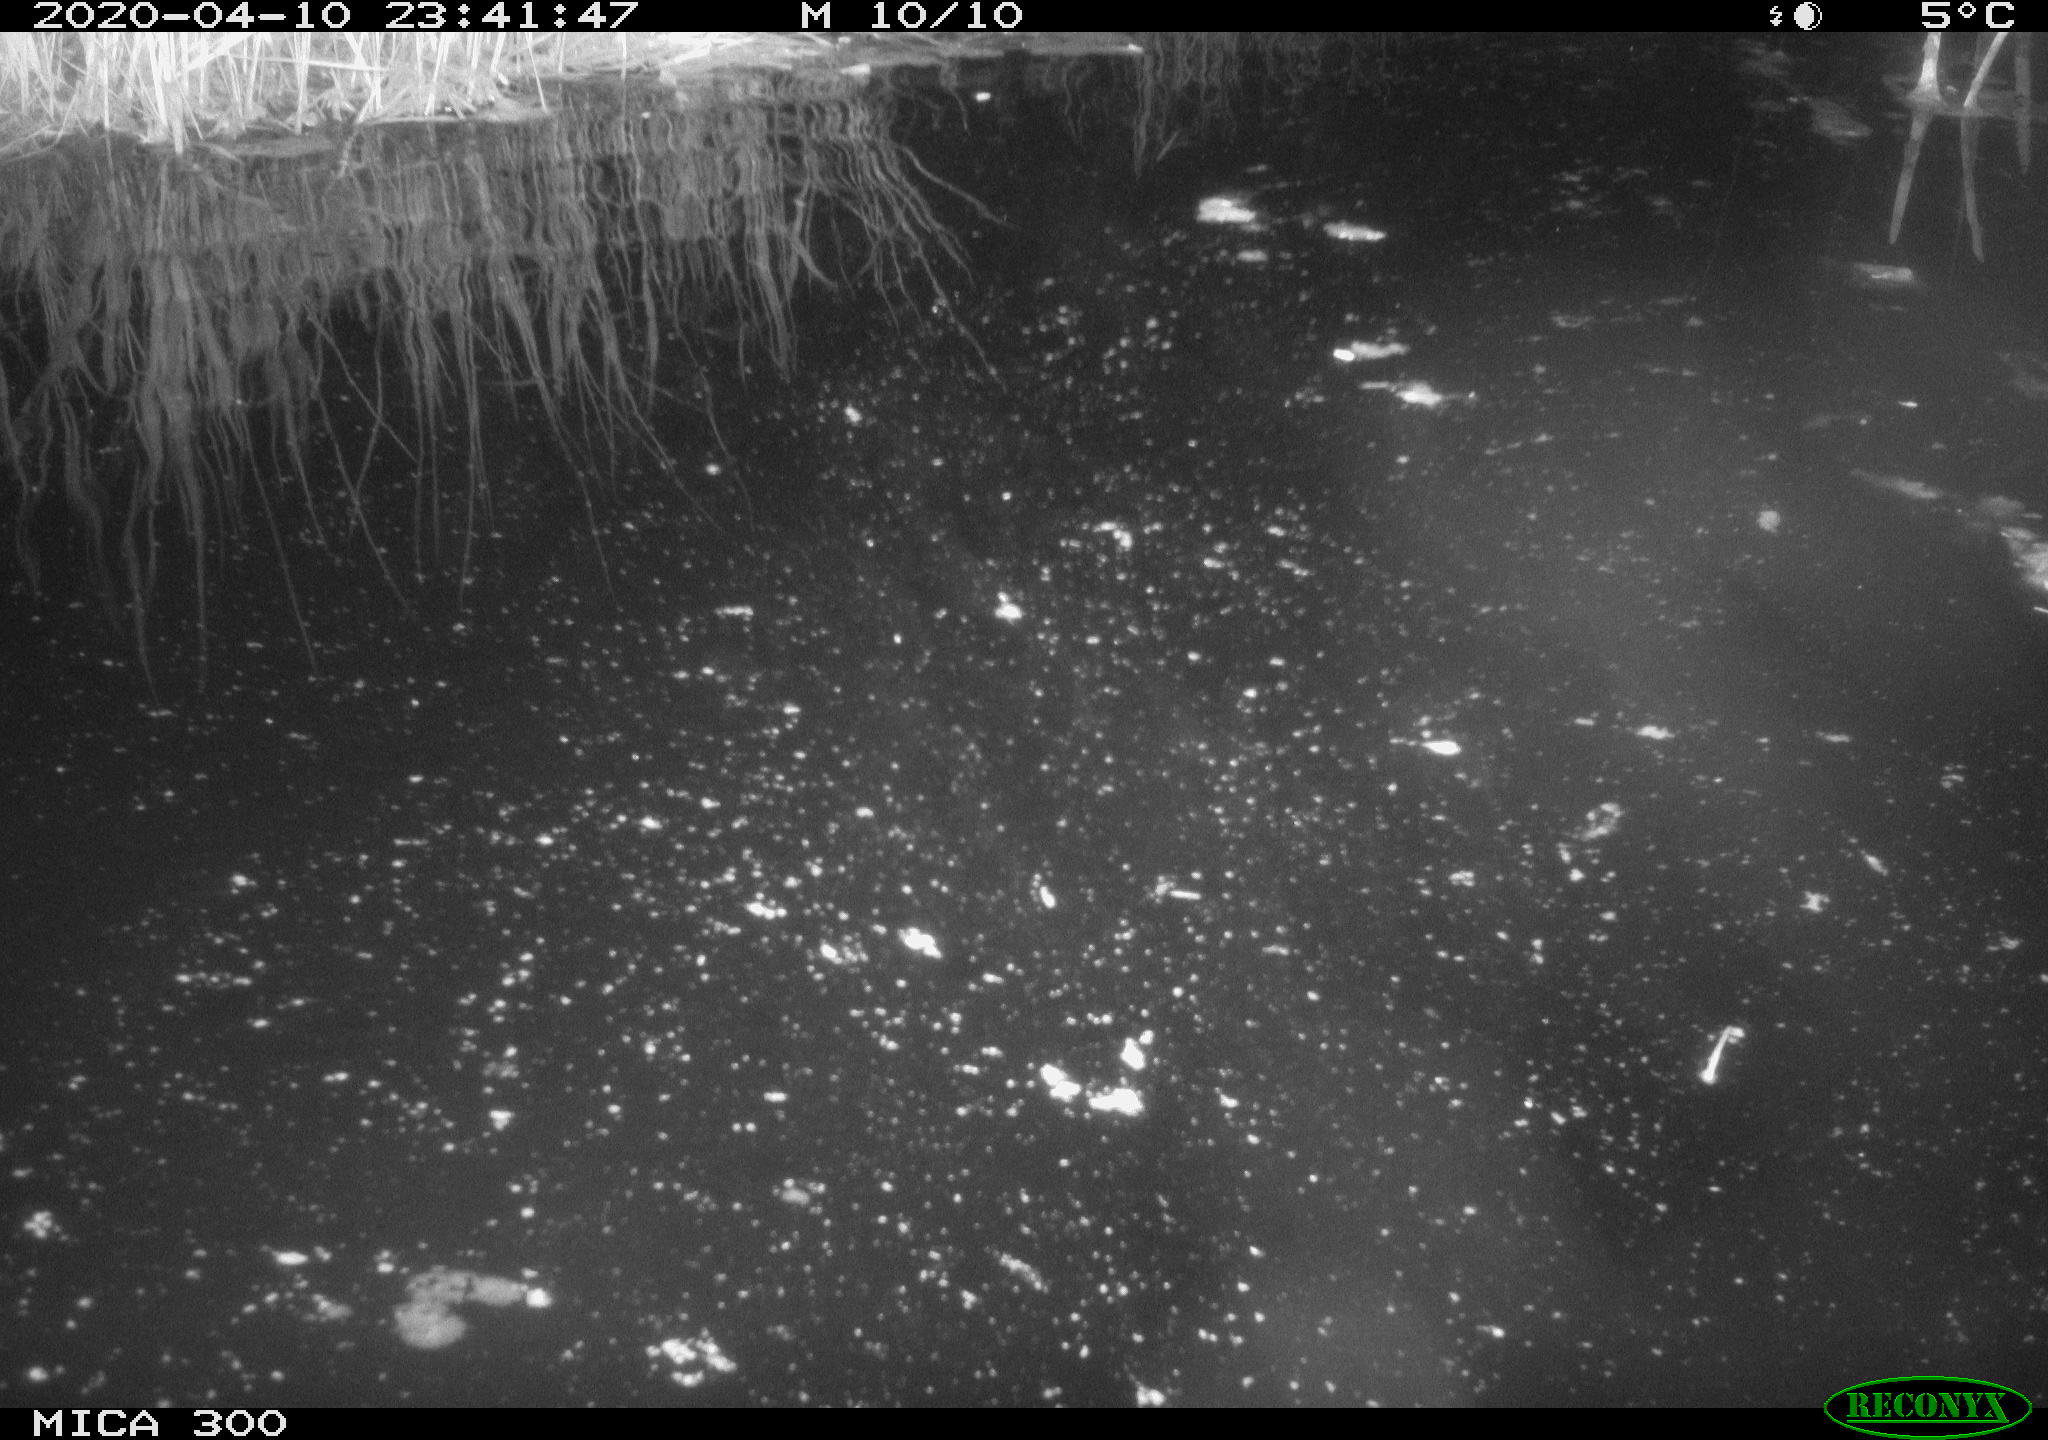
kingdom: Animalia
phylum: Chordata
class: Mammalia
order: Rodentia
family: Muridae
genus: Rattus
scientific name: Rattus norvegicus
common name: Brown rat
